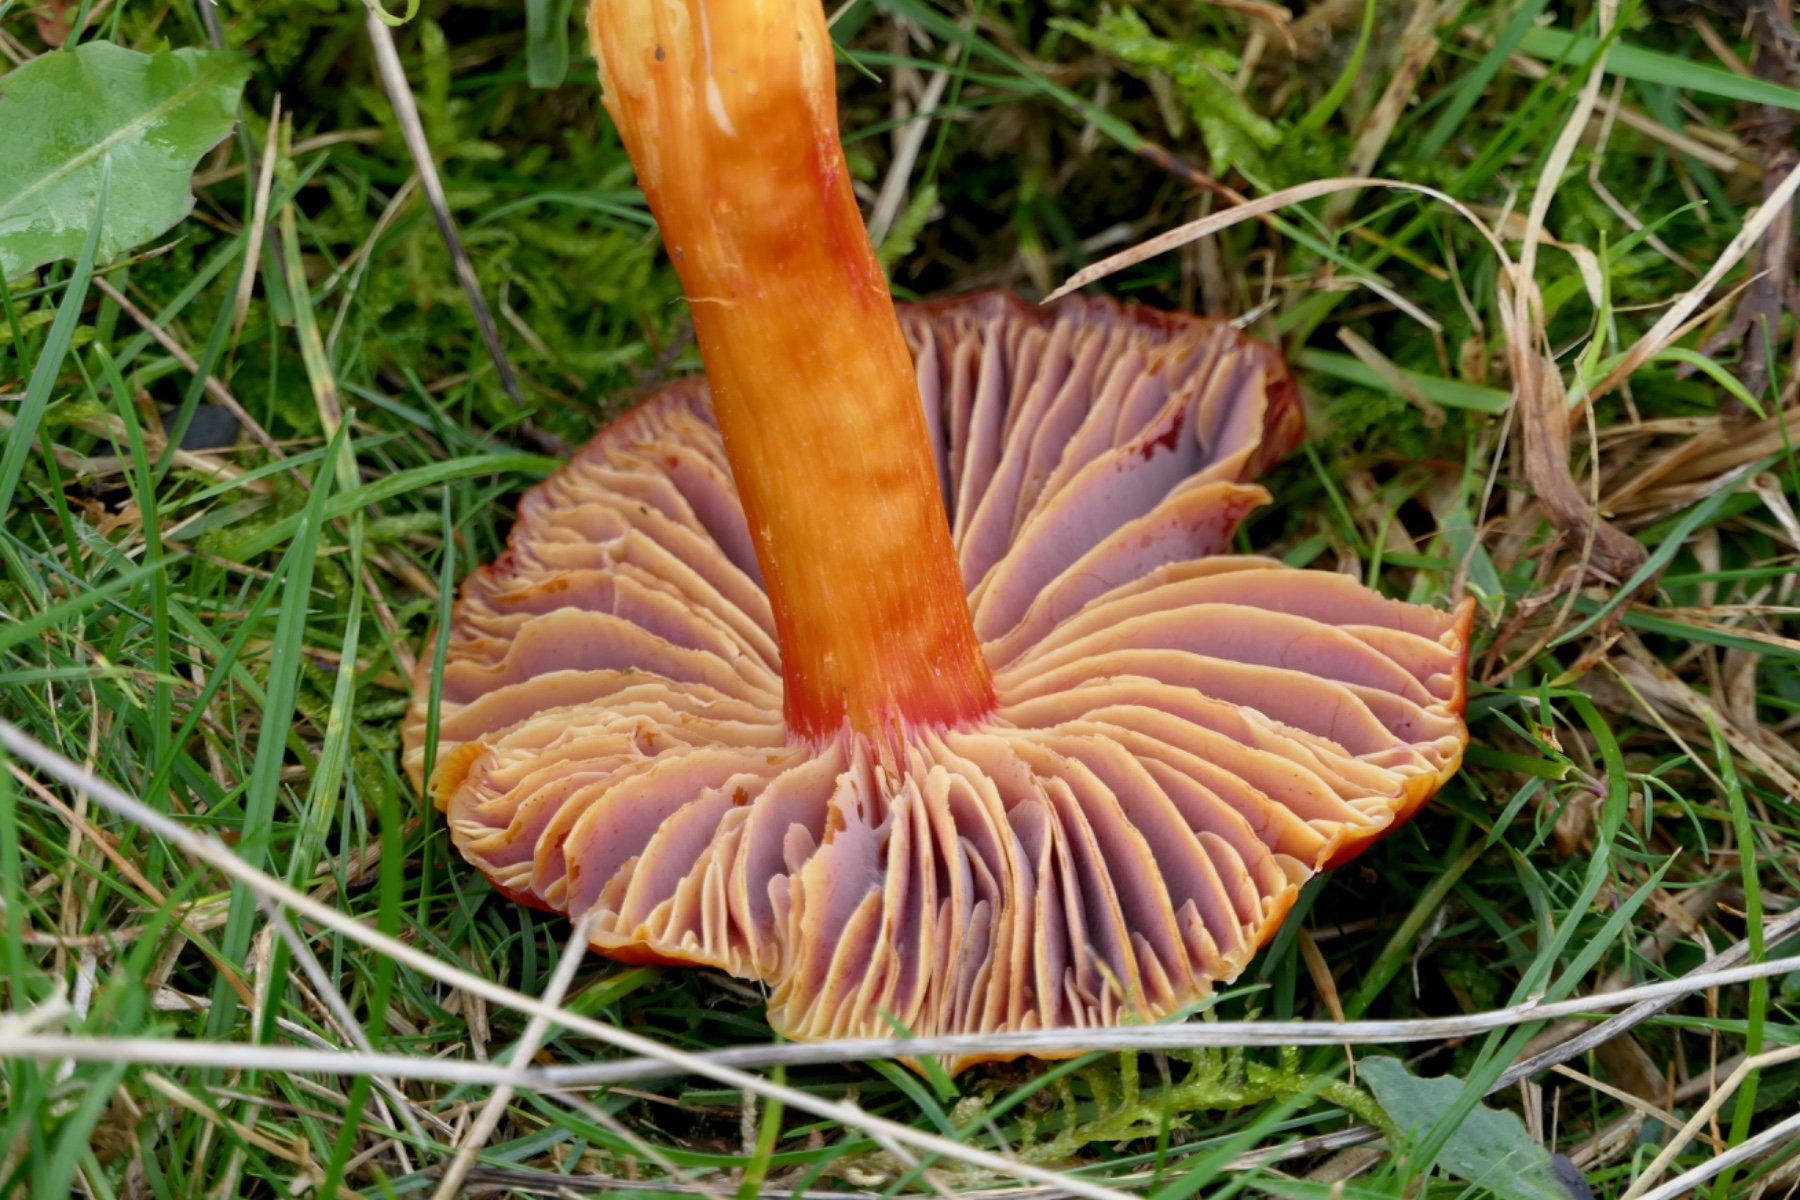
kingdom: Fungi
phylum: Basidiomycota
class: Agaricomycetes
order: Agaricales
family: Hygrophoraceae
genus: Hygrocybe
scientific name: Hygrocybe punicea
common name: skarlagen-vokshat
